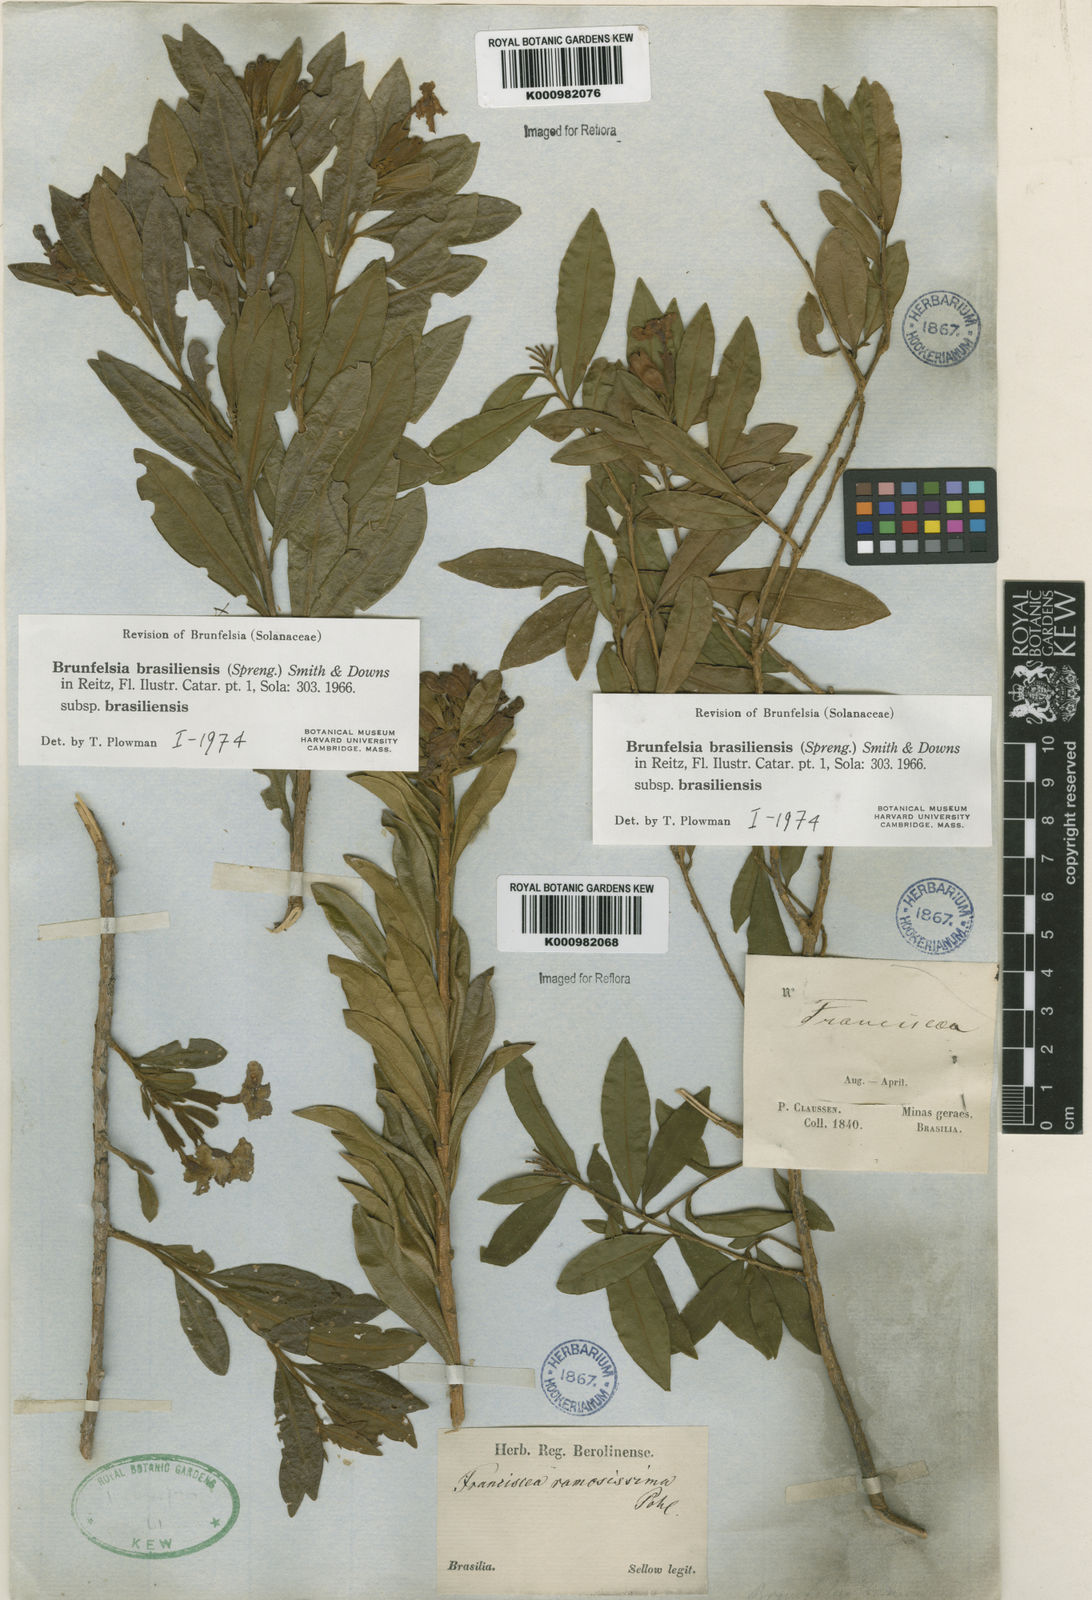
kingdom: Plantae
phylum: Tracheophyta
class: Magnoliopsida
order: Solanales
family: Solanaceae
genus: Brunfelsia
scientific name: Brunfelsia brasiliensis
